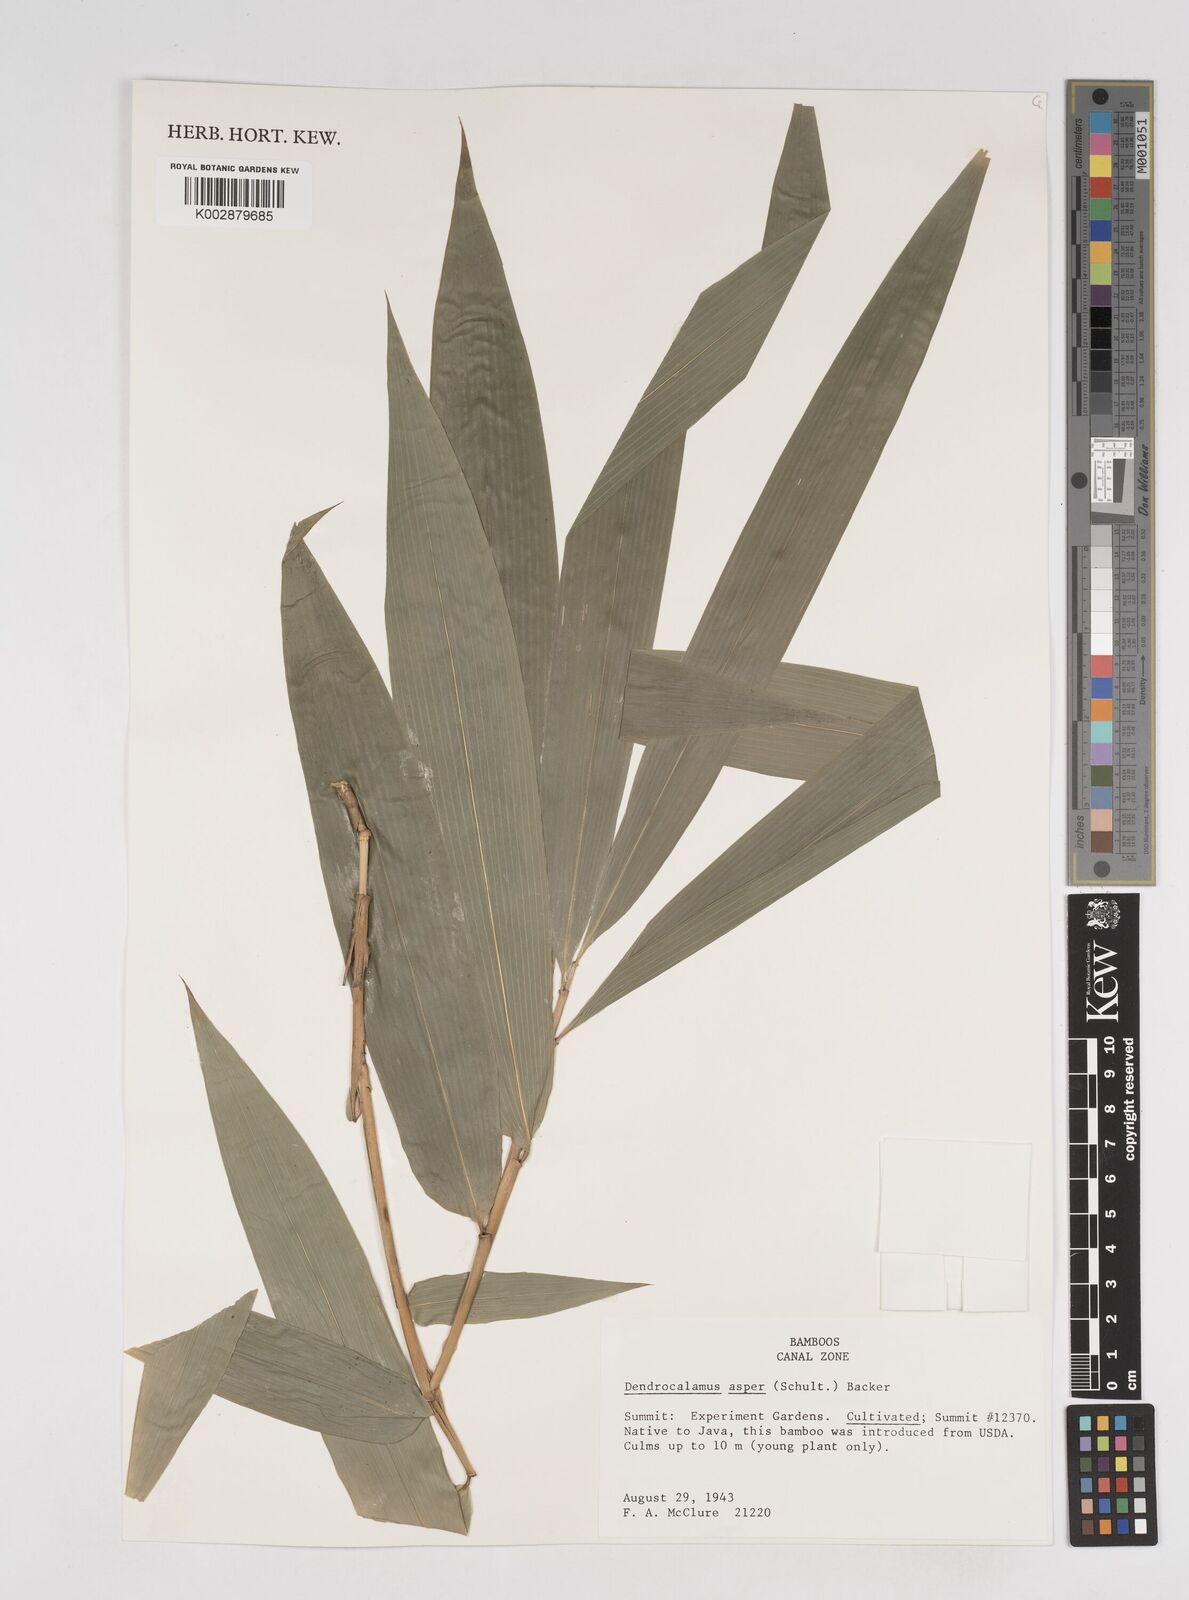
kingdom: Plantae
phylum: Tracheophyta
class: Liliopsida
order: Poales
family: Poaceae
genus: Dendrocalamus
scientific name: Dendrocalamus asper
